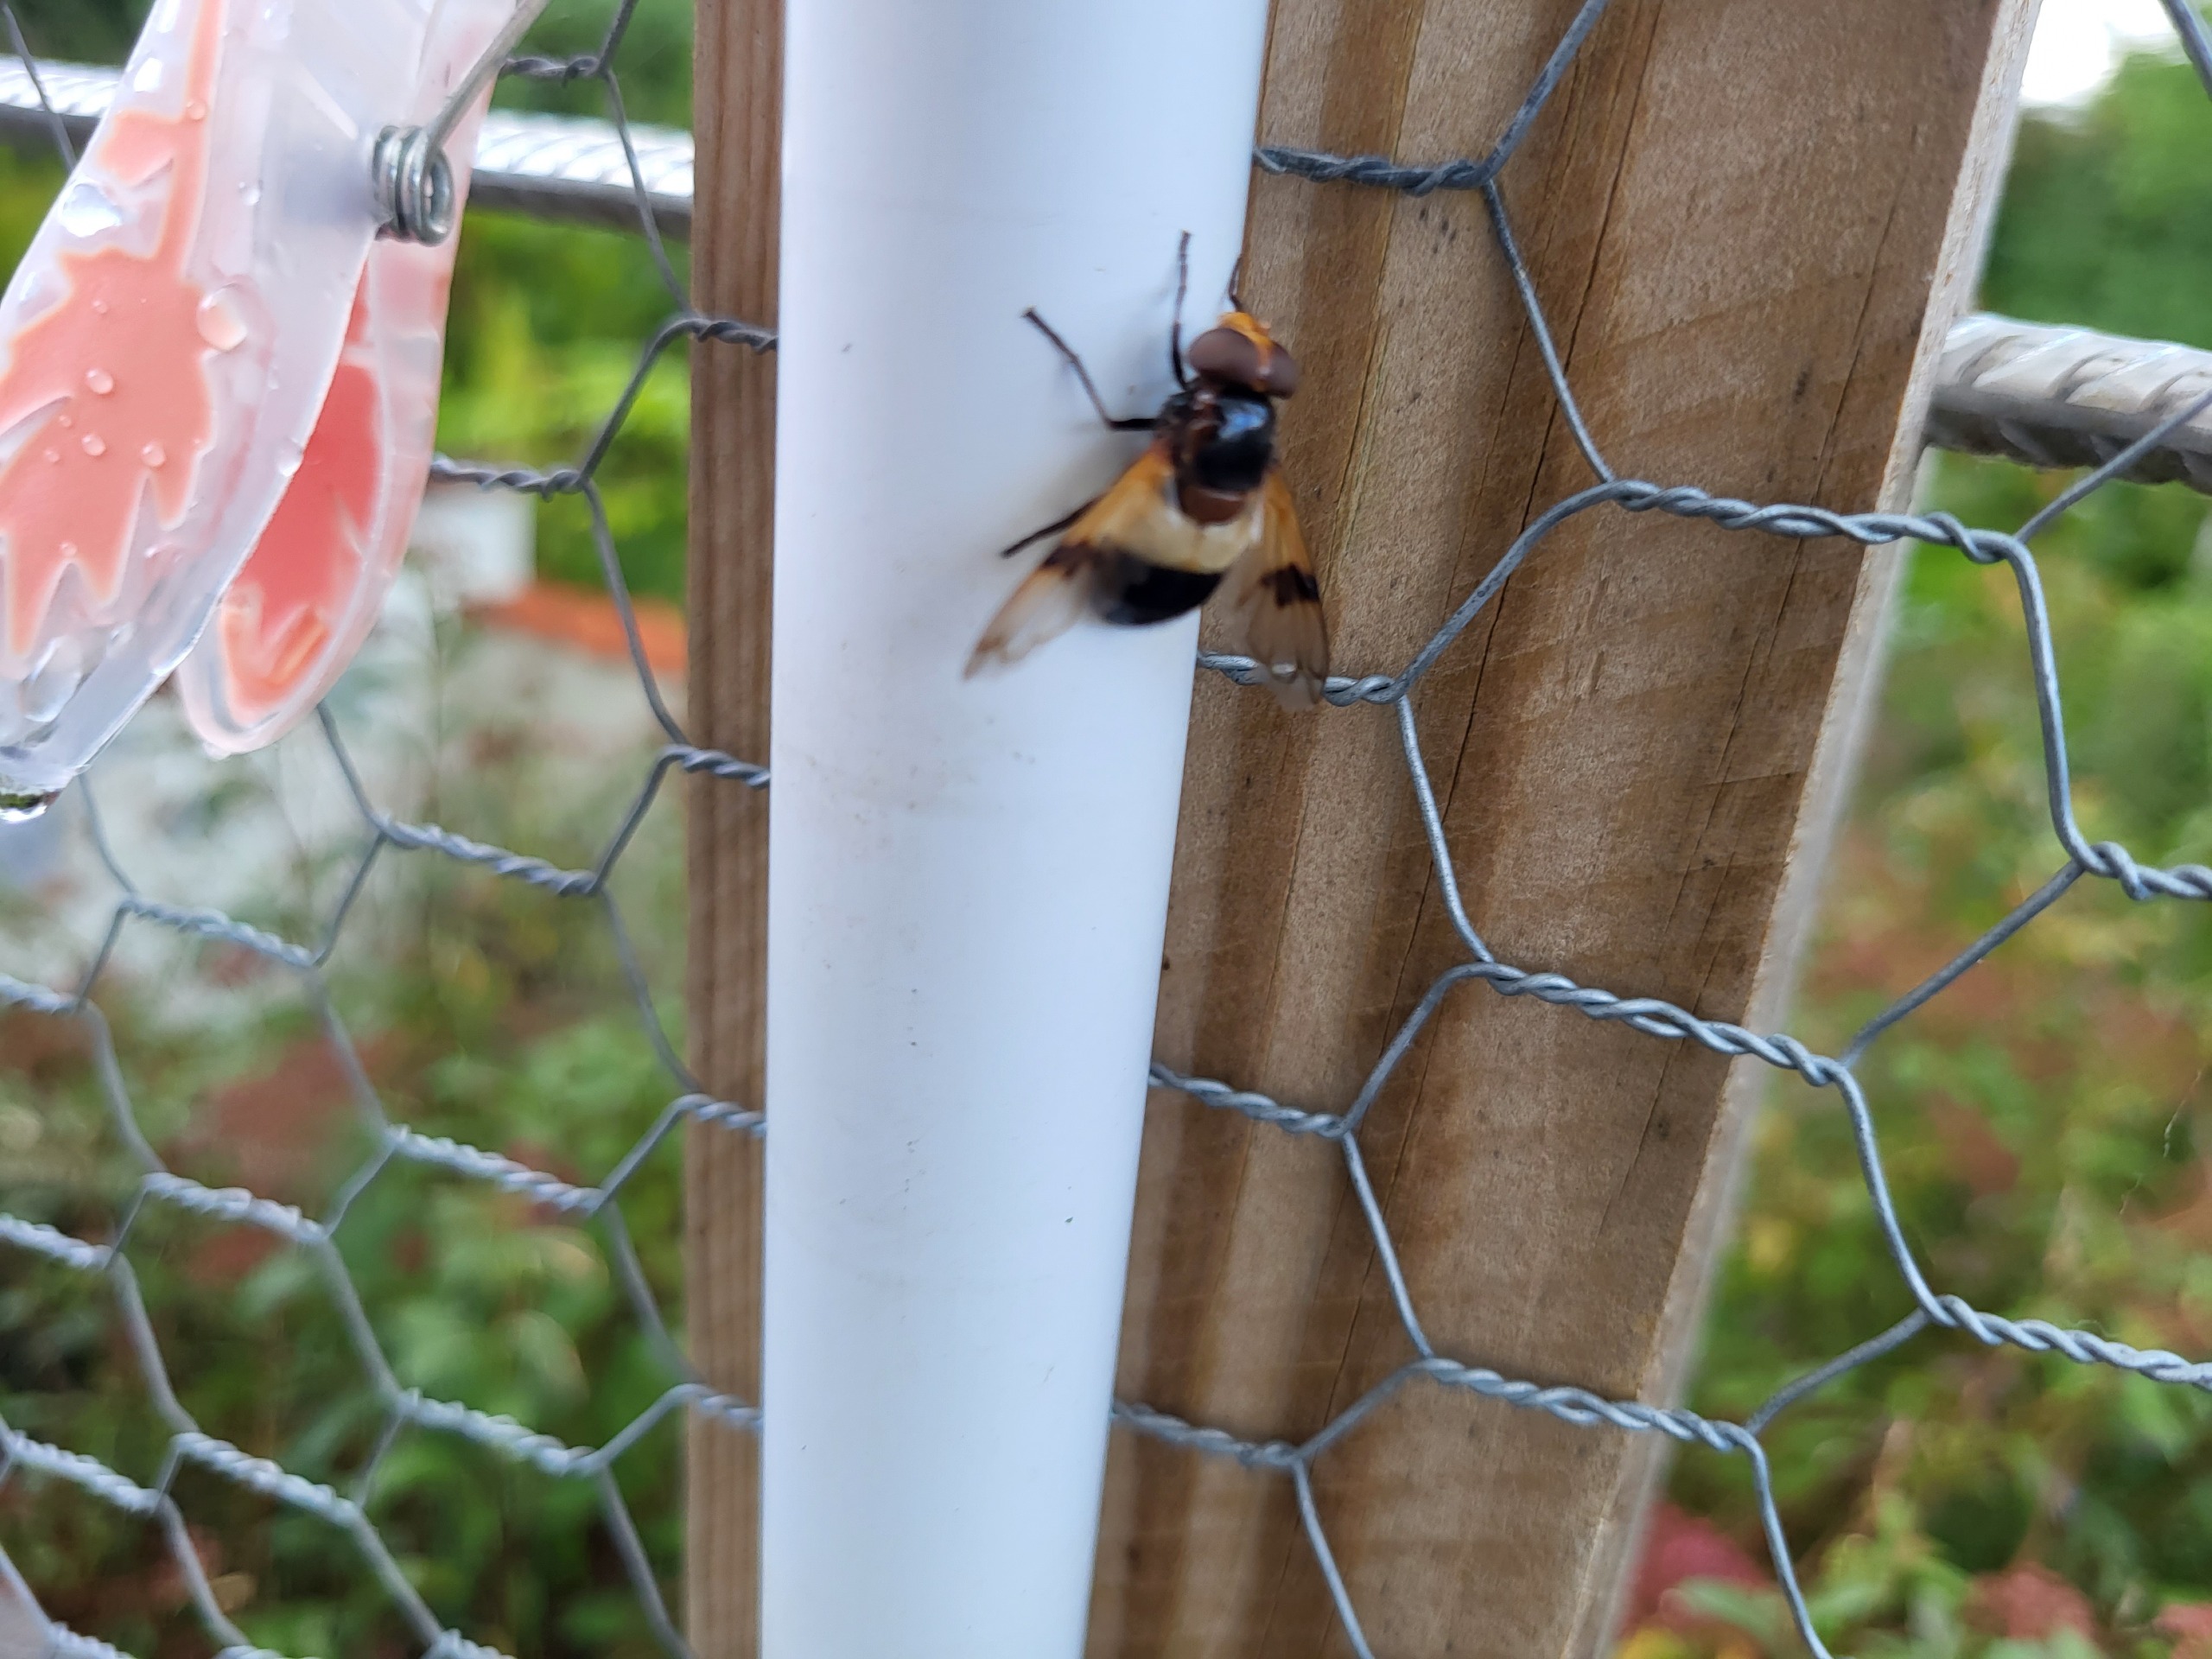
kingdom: Animalia
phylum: Arthropoda
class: Insecta
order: Diptera
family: Syrphidae
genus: Volucella
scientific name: Volucella pellucens
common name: Hvidbåndet humlesvirreflue
